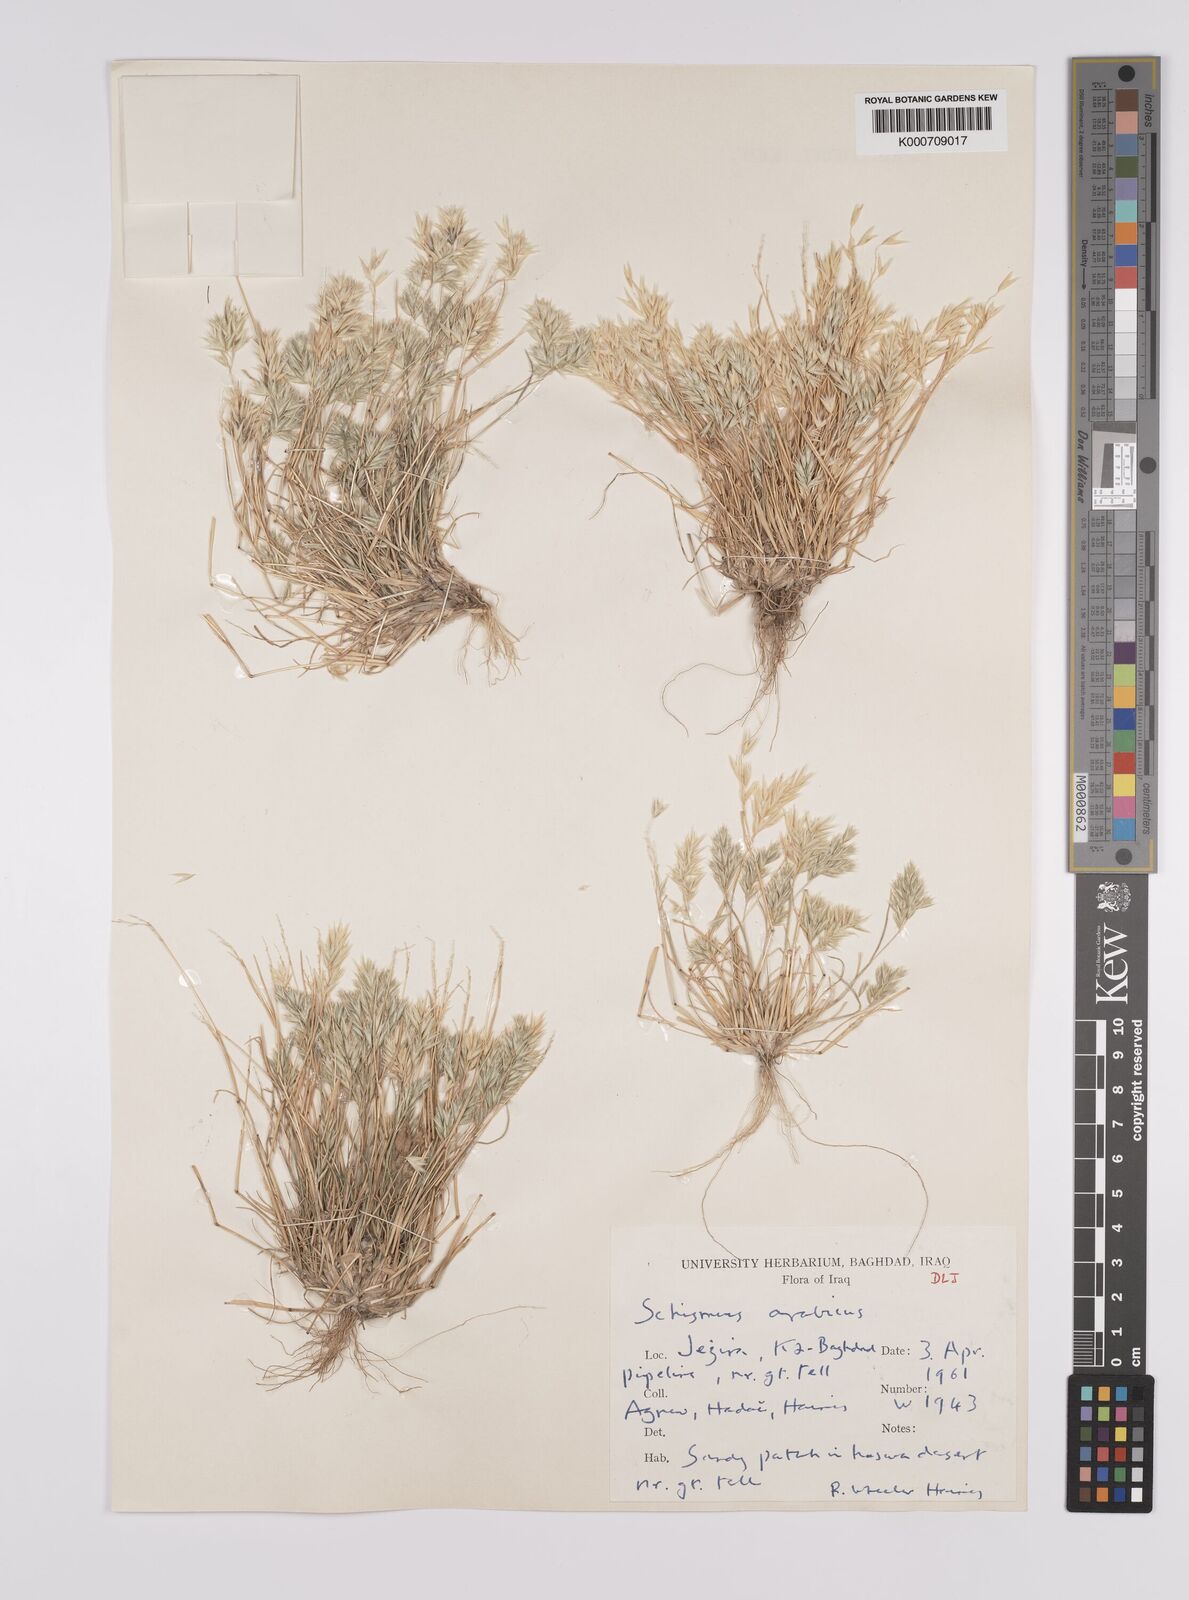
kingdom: Plantae
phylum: Tracheophyta
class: Liliopsida
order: Poales
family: Poaceae
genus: Schismus
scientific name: Schismus arabicus
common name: Arabian schismus
